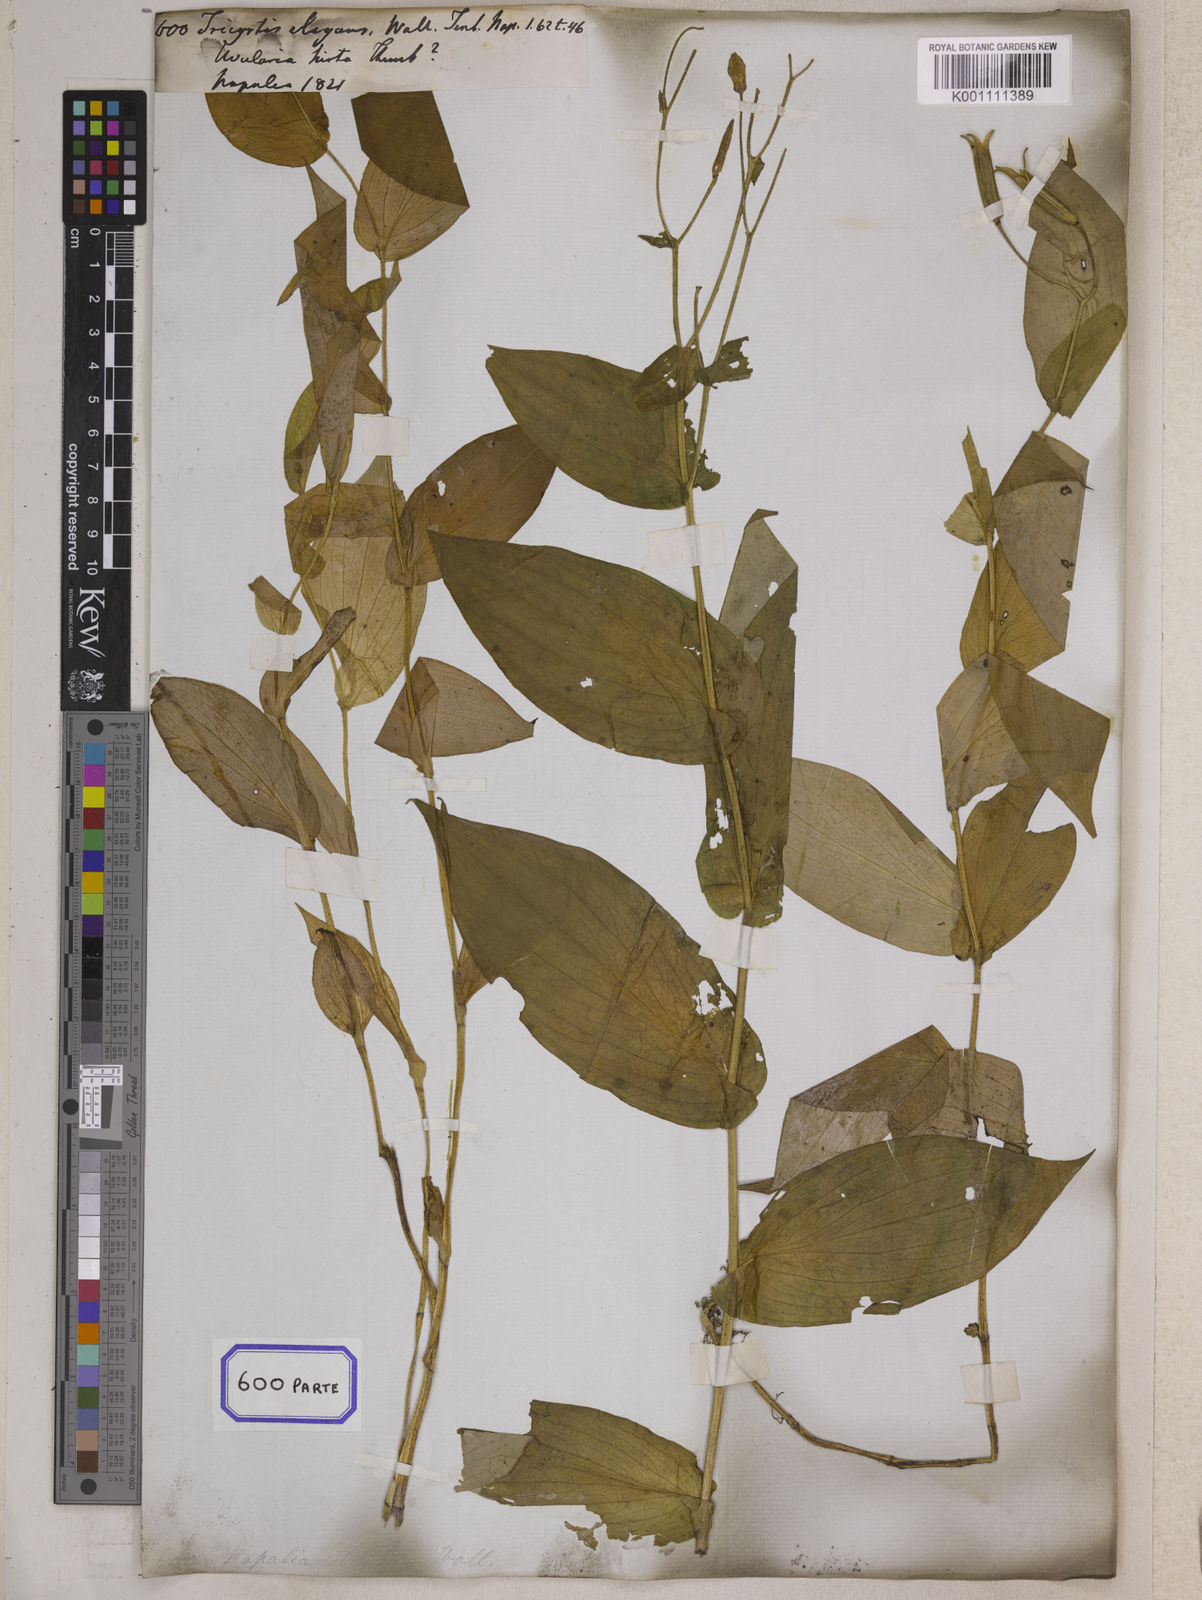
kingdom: Plantae
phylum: Tracheophyta
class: Liliopsida
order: Liliales
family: Liliaceae
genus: Tricyrtis
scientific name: Tricyrtis maculata
